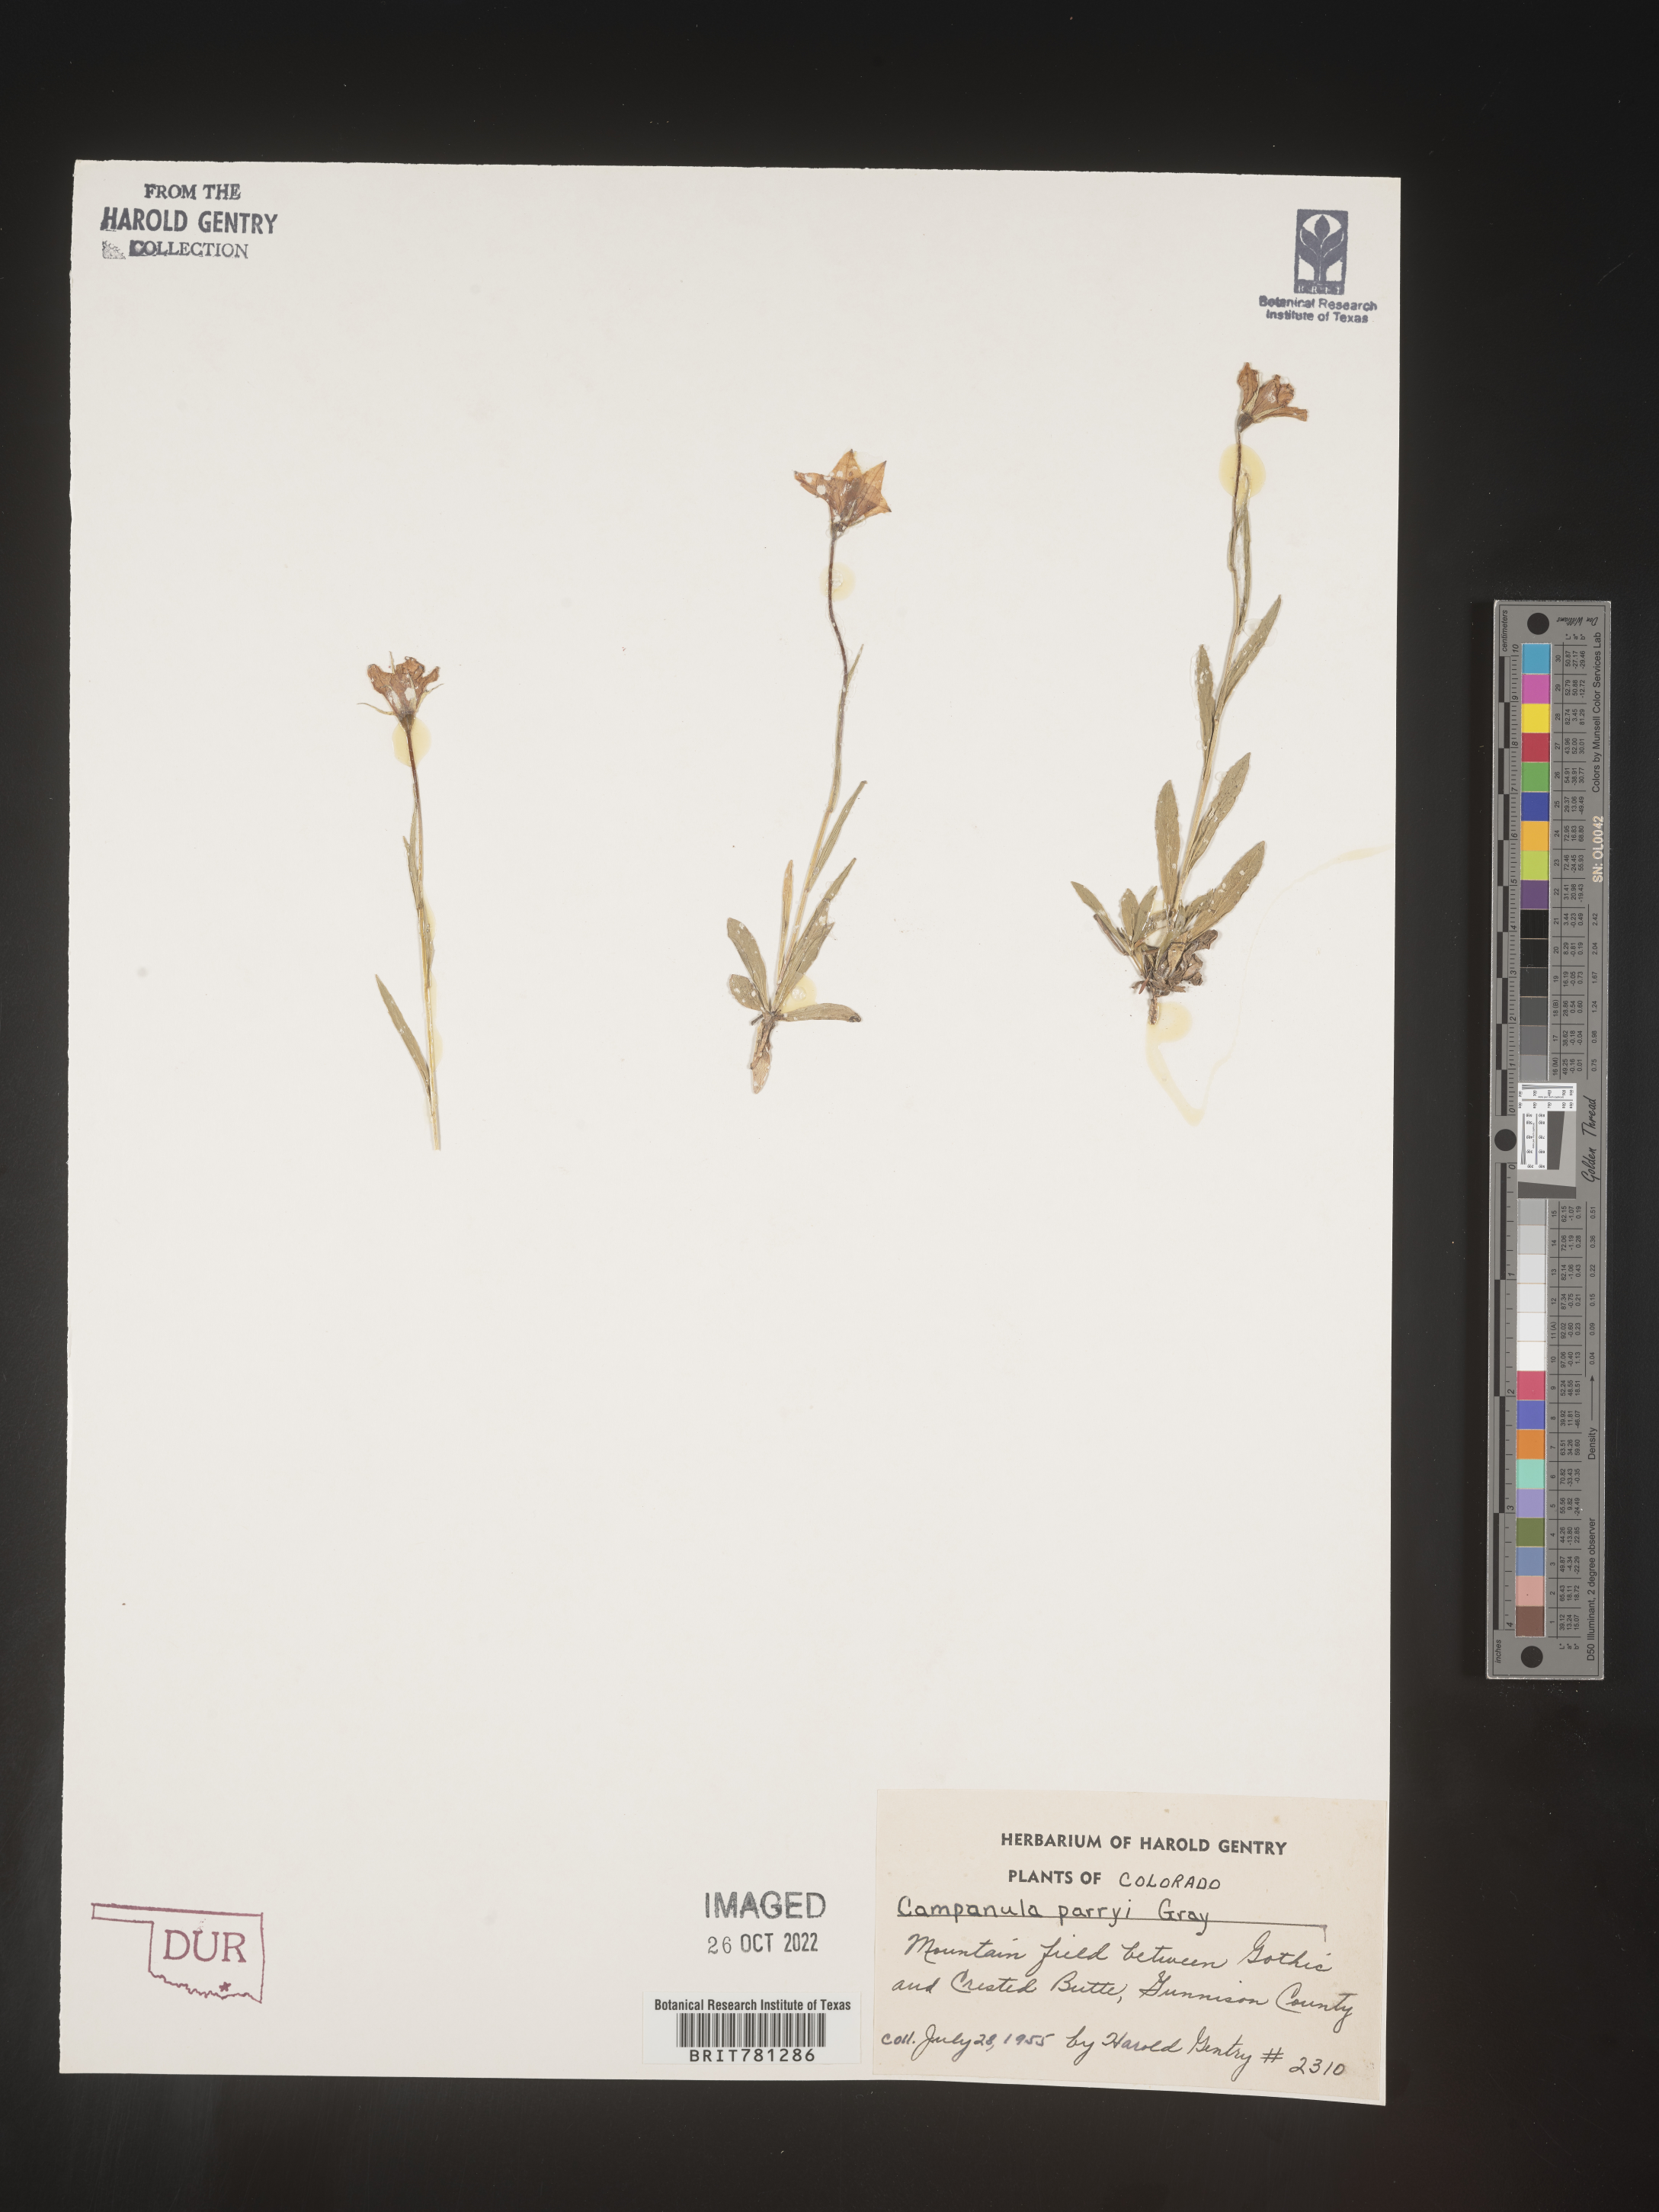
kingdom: Plantae
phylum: Tracheophyta
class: Magnoliopsida
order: Asterales
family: Campanulaceae
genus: Campanula
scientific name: Campanula parryi
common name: Rocky mountain bellflower
